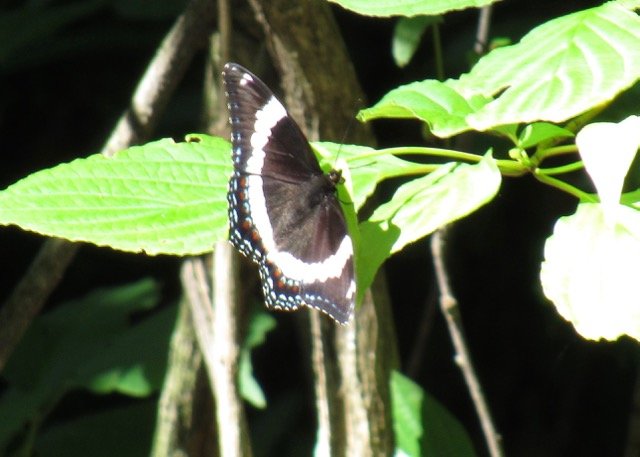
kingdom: Animalia
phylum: Arthropoda
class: Insecta
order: Lepidoptera
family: Nymphalidae
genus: Limenitis
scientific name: Limenitis arthemis
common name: Red-spotted Admiral
